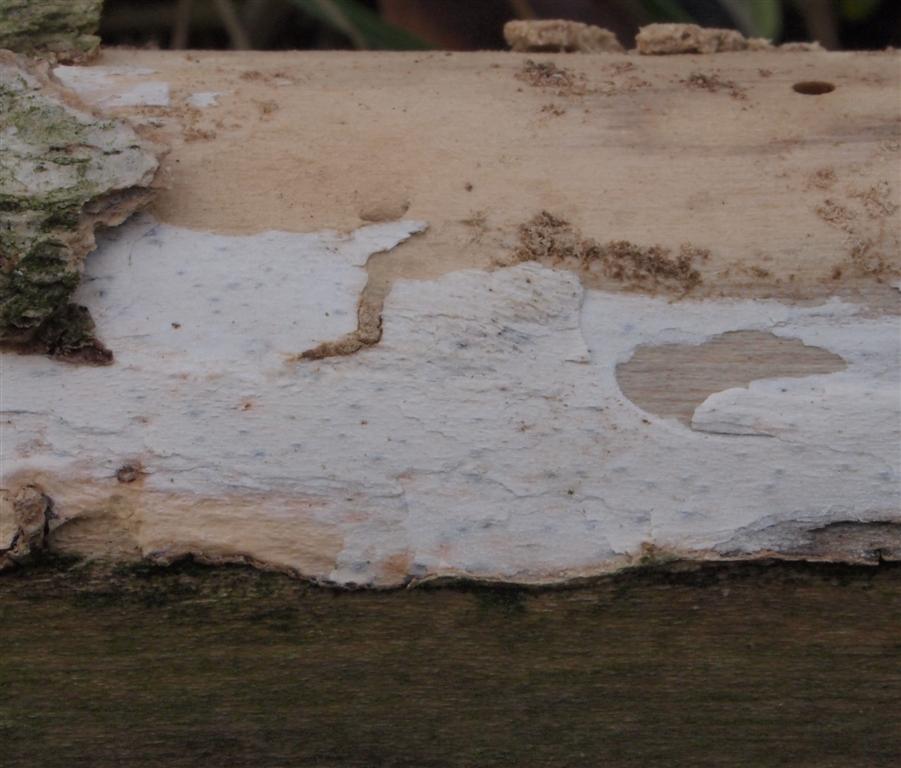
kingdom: Fungi
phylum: Basidiomycota
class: Agaricomycetes
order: Corticiales
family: Corticiaceae
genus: Lyomyces
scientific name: Lyomyces sambuci
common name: almindelig hyldehinde
